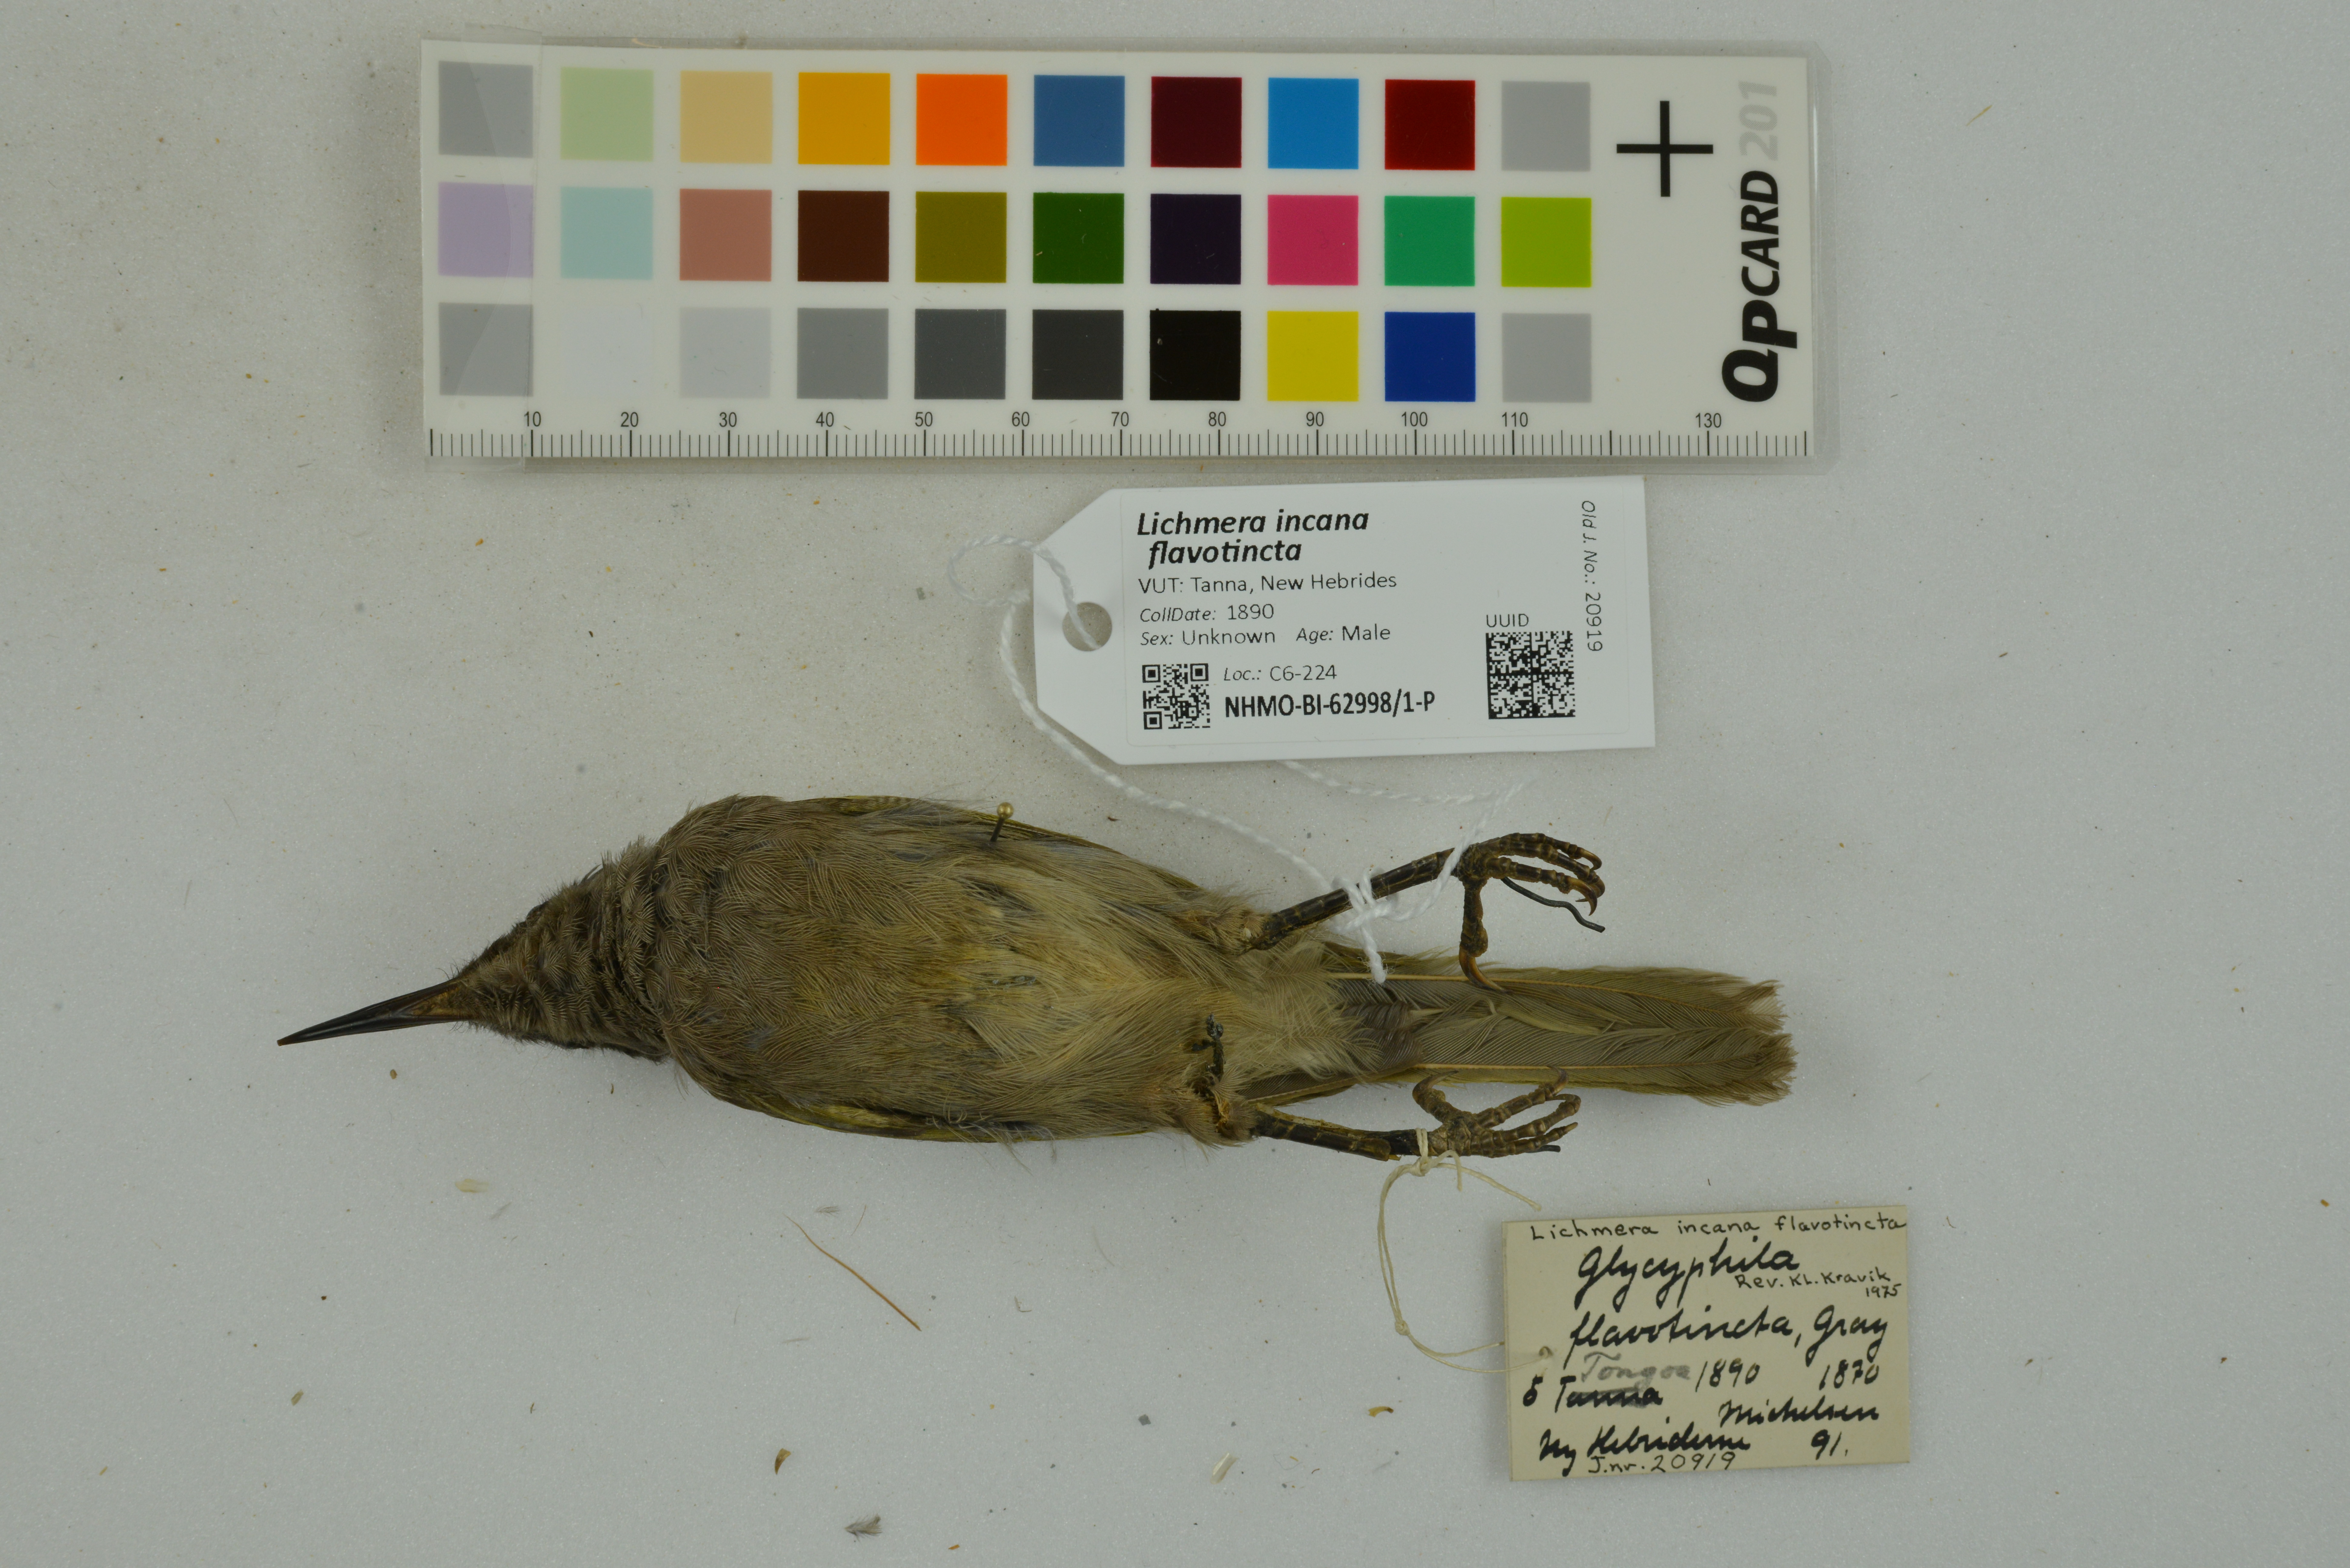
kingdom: Animalia
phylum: Chordata
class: Aves
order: Passeriformes
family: Meliphagidae
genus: Lichmera
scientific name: Lichmera incana
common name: Grey-eared honeyeater
